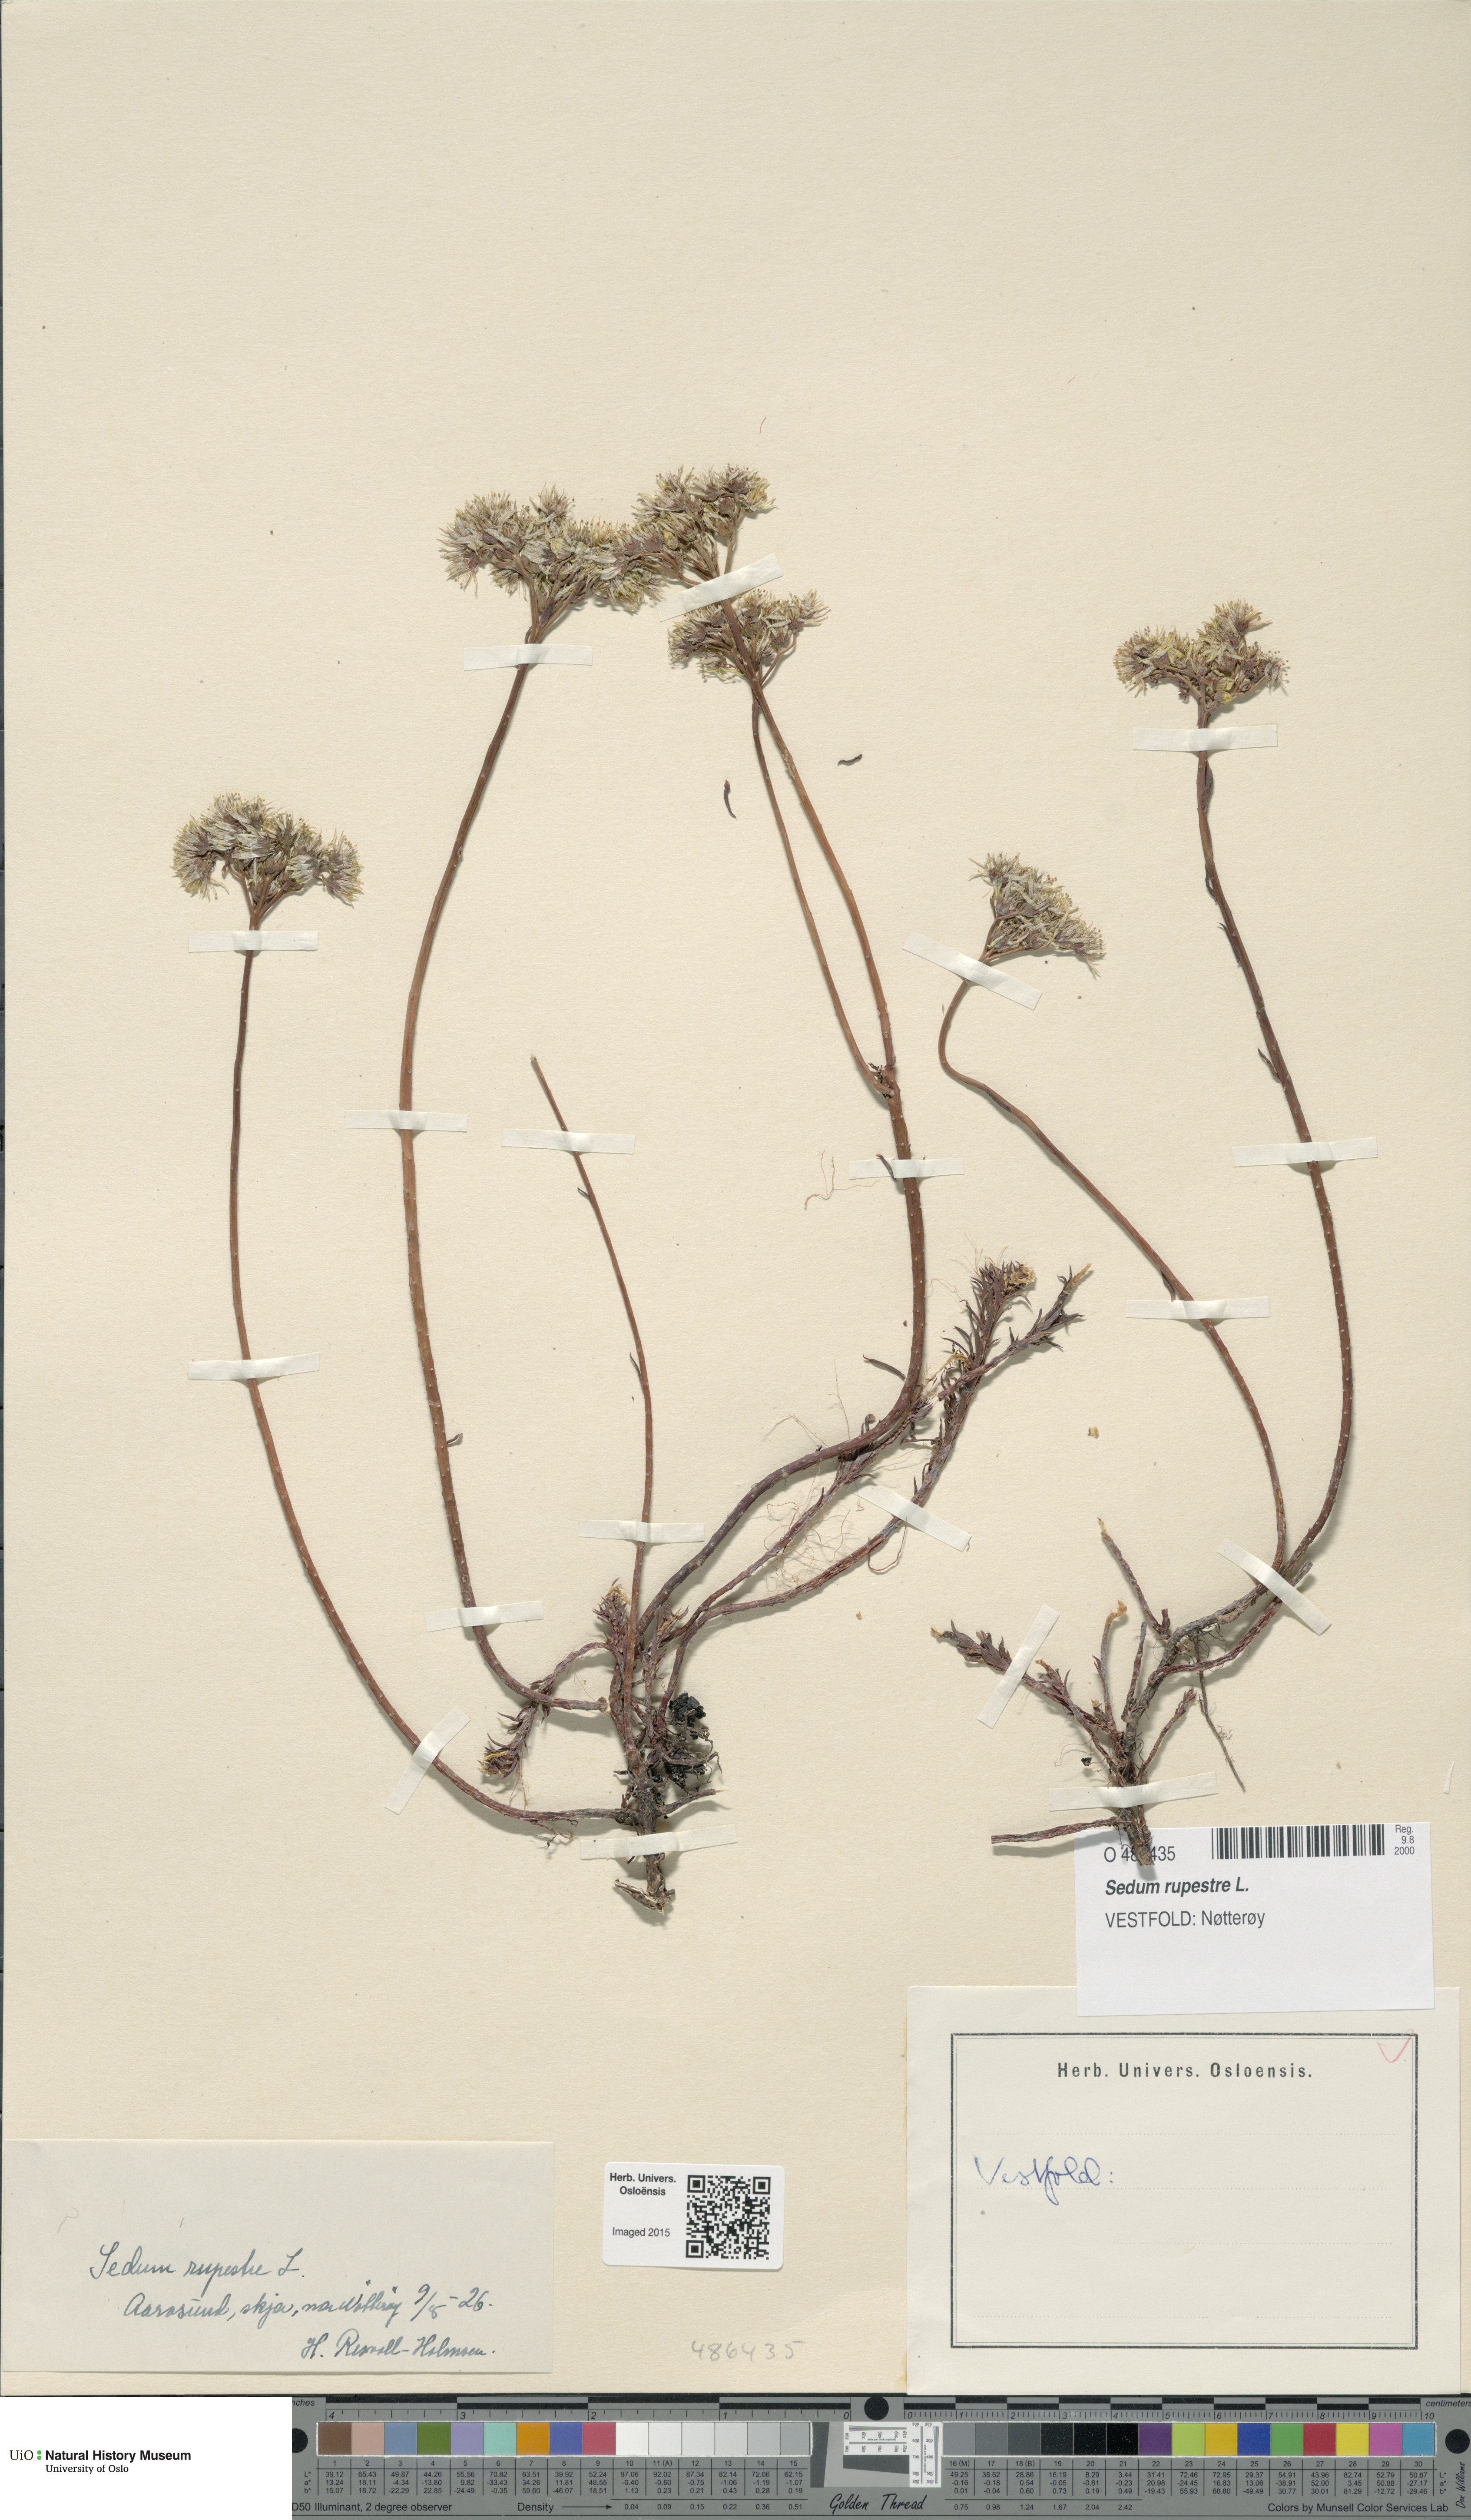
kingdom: Plantae
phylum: Tracheophyta
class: Magnoliopsida
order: Saxifragales
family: Crassulaceae
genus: Petrosedum
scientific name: Petrosedum rupestre
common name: Jenny's stonecrop
